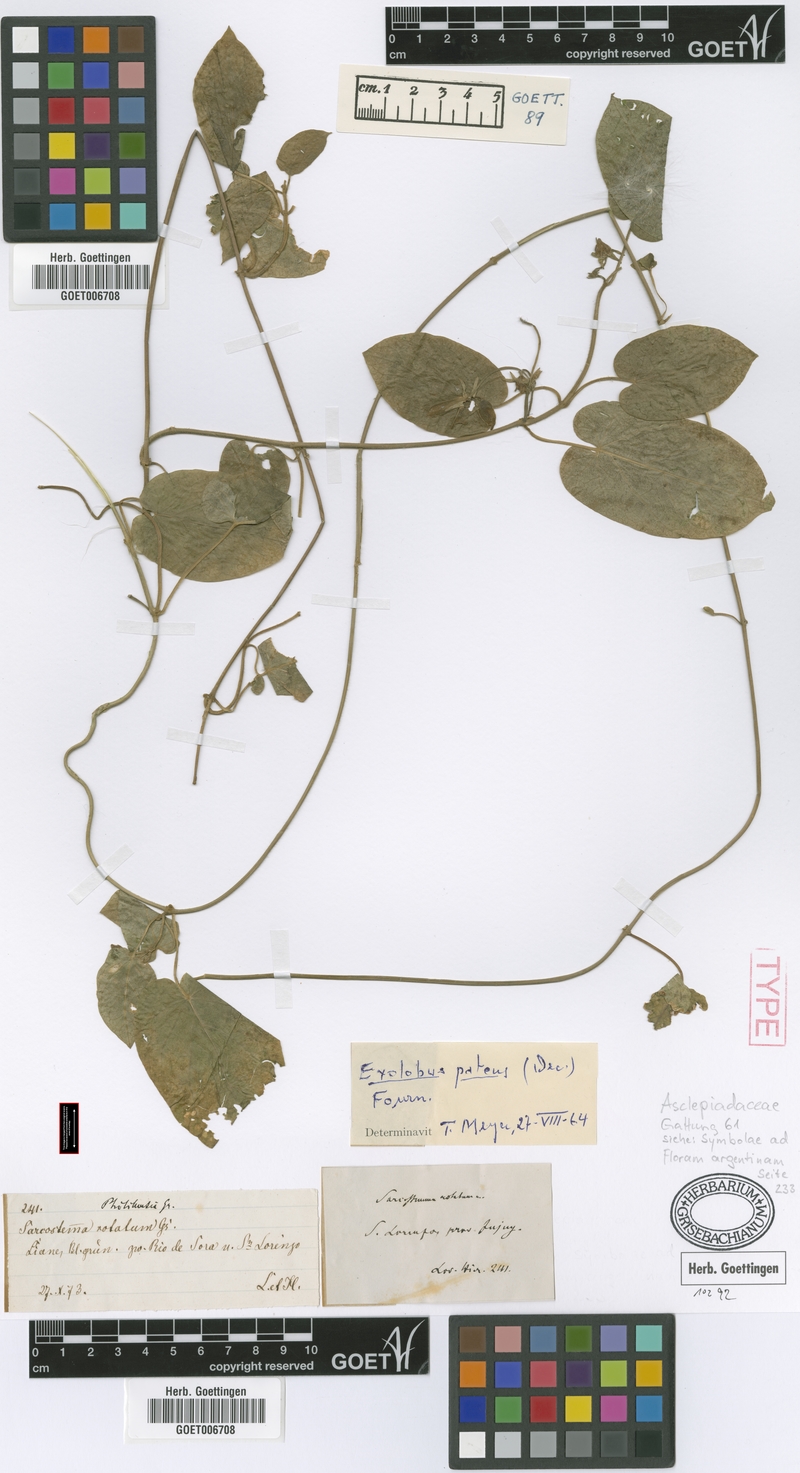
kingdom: Plantae
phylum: Tracheophyta
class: Magnoliopsida
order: Gentianales
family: Apocynaceae
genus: Gonolobus
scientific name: Gonolobus rostratus
